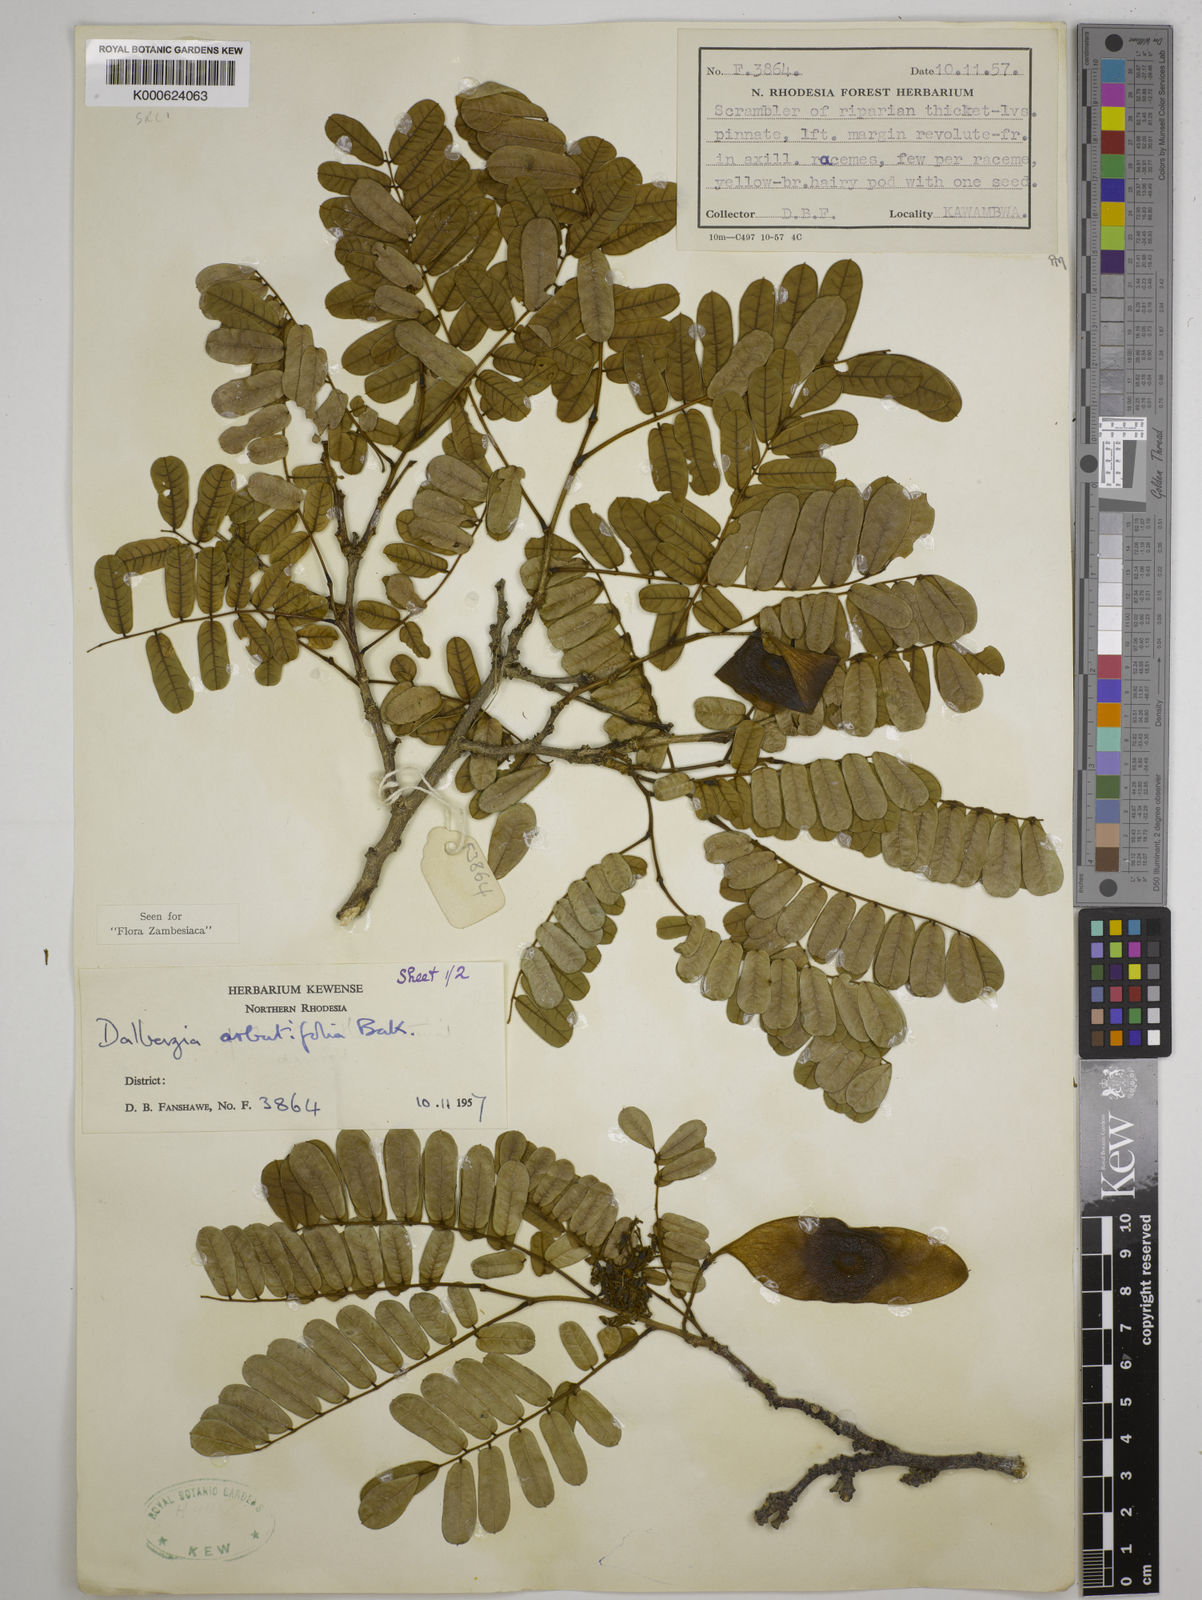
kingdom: Plantae
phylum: Tracheophyta
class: Magnoliopsida
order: Fabales
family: Fabaceae
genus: Dalbergia
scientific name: Dalbergia arbutifolia
